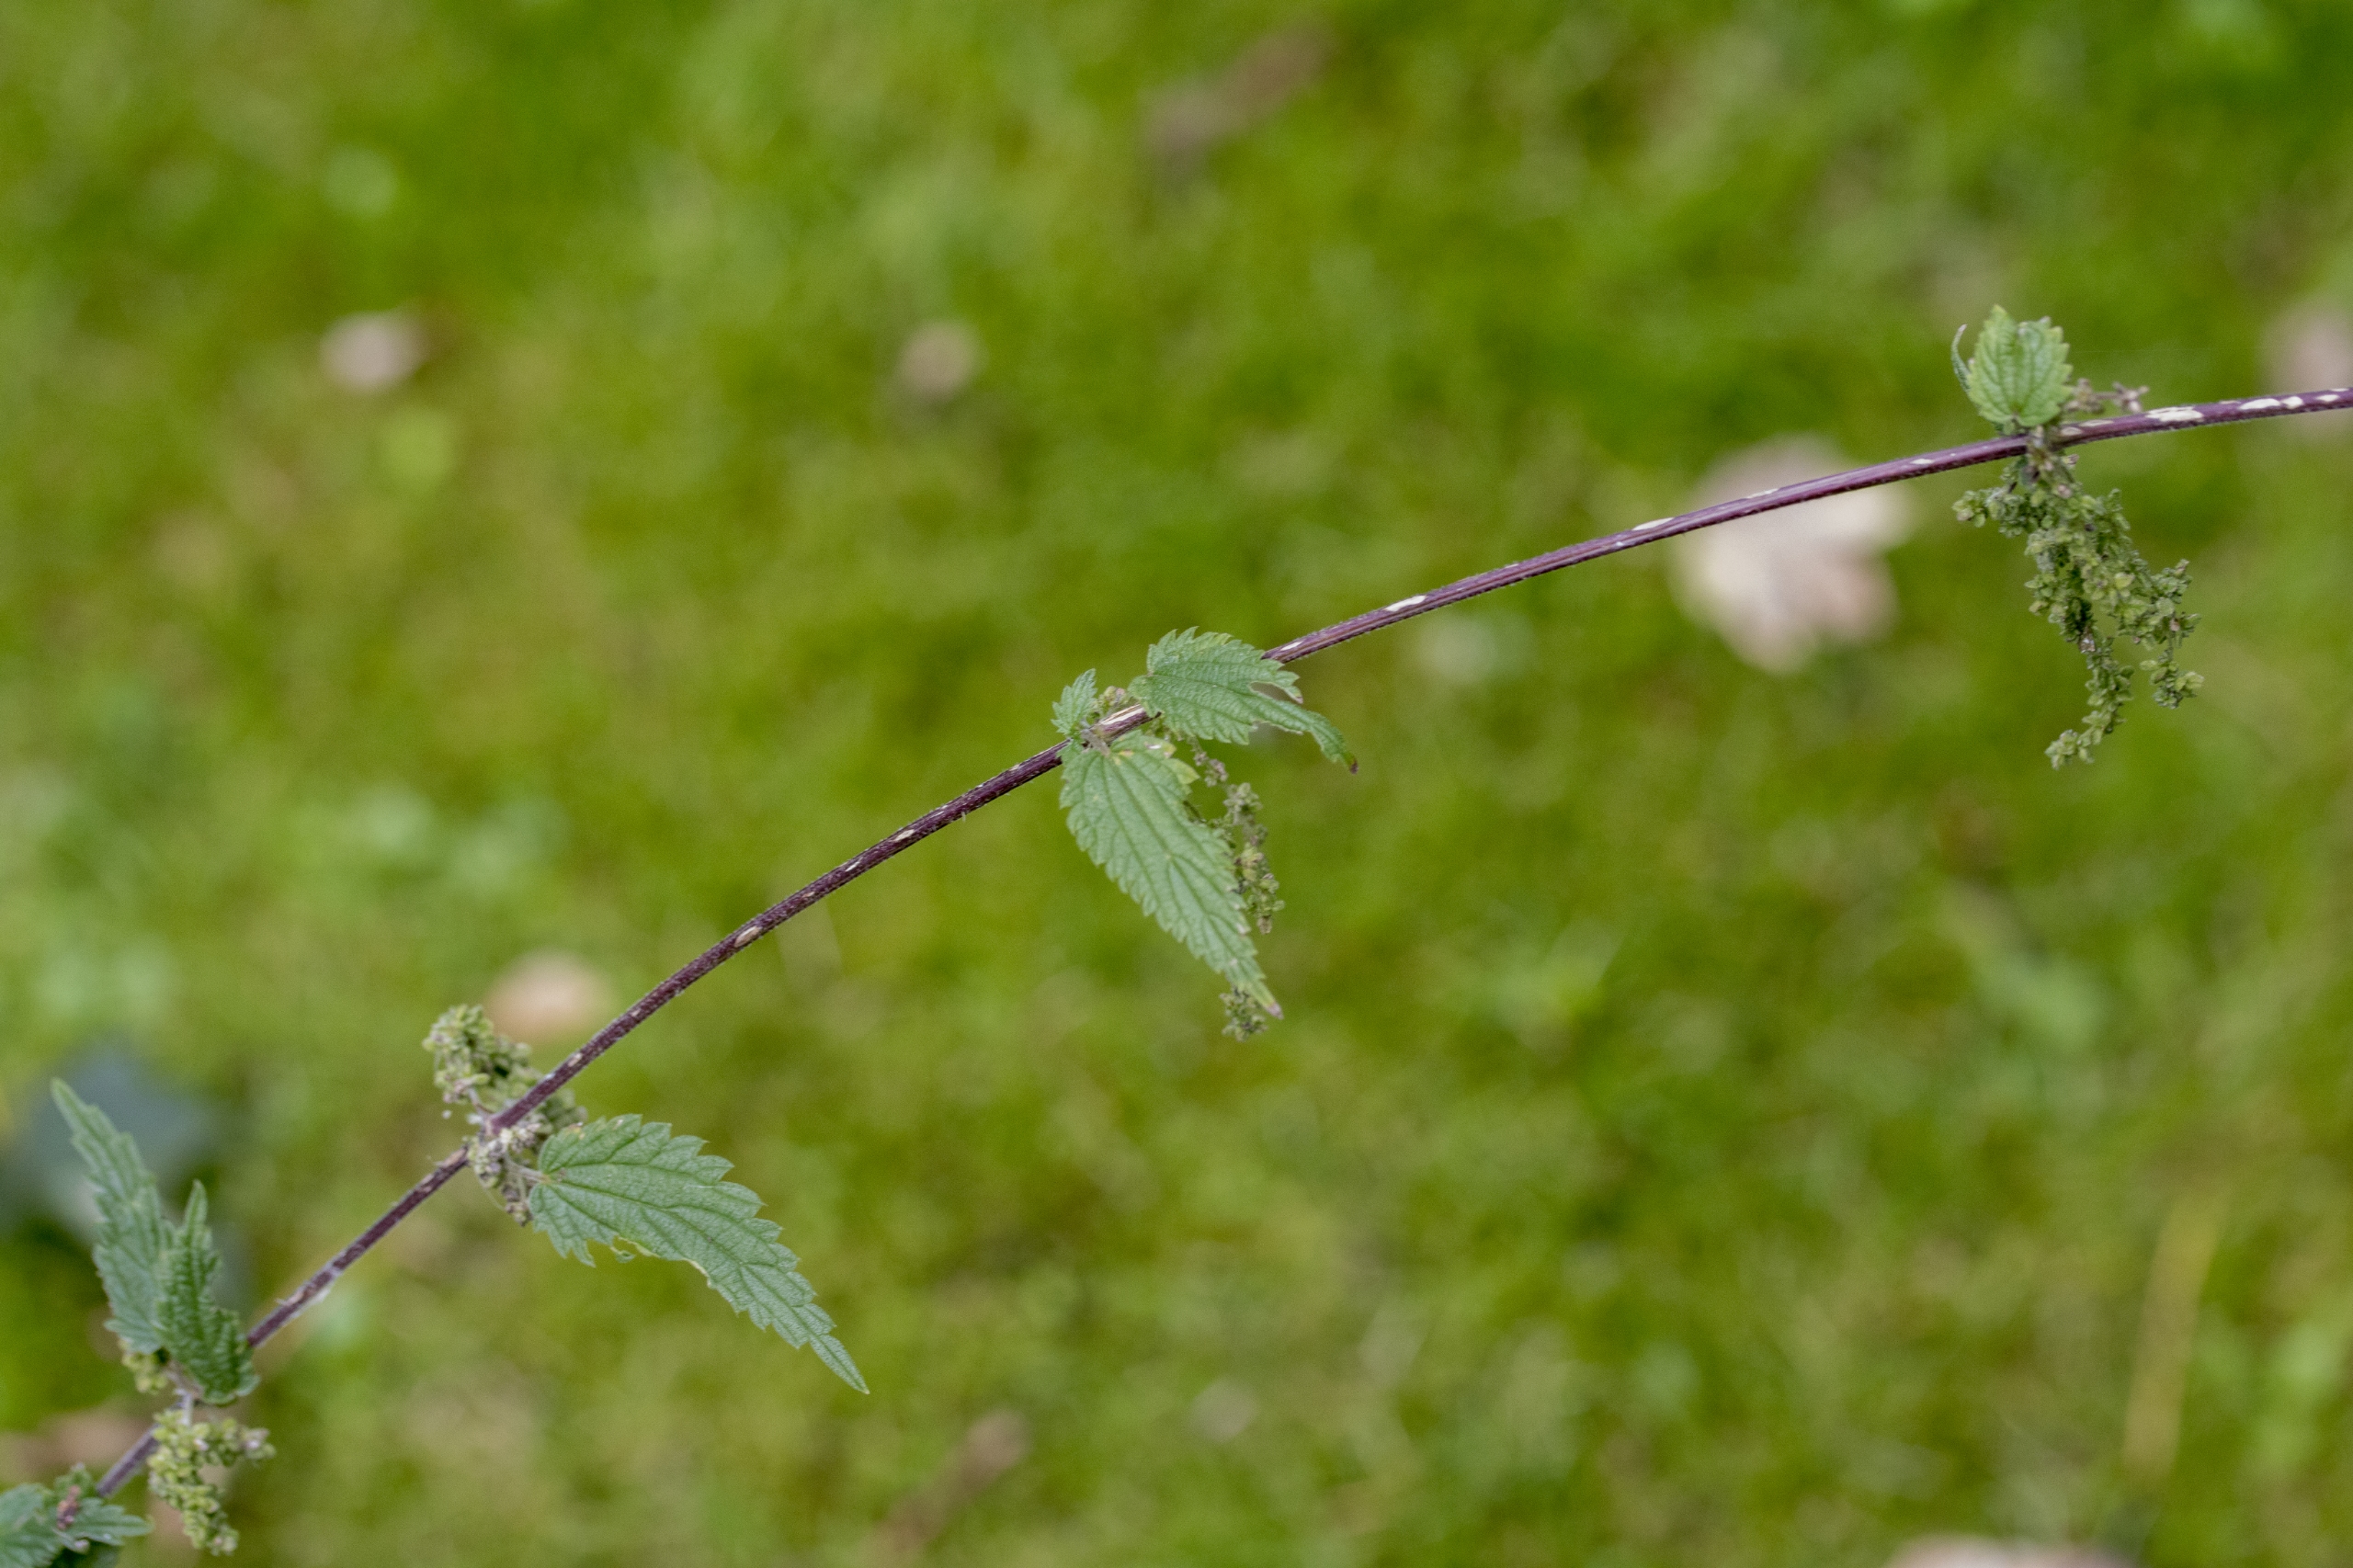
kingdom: Plantae
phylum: Tracheophyta
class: Magnoliopsida
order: Rosales
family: Urticaceae
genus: Urtica
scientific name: Urtica dioica
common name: Skov-nælde
